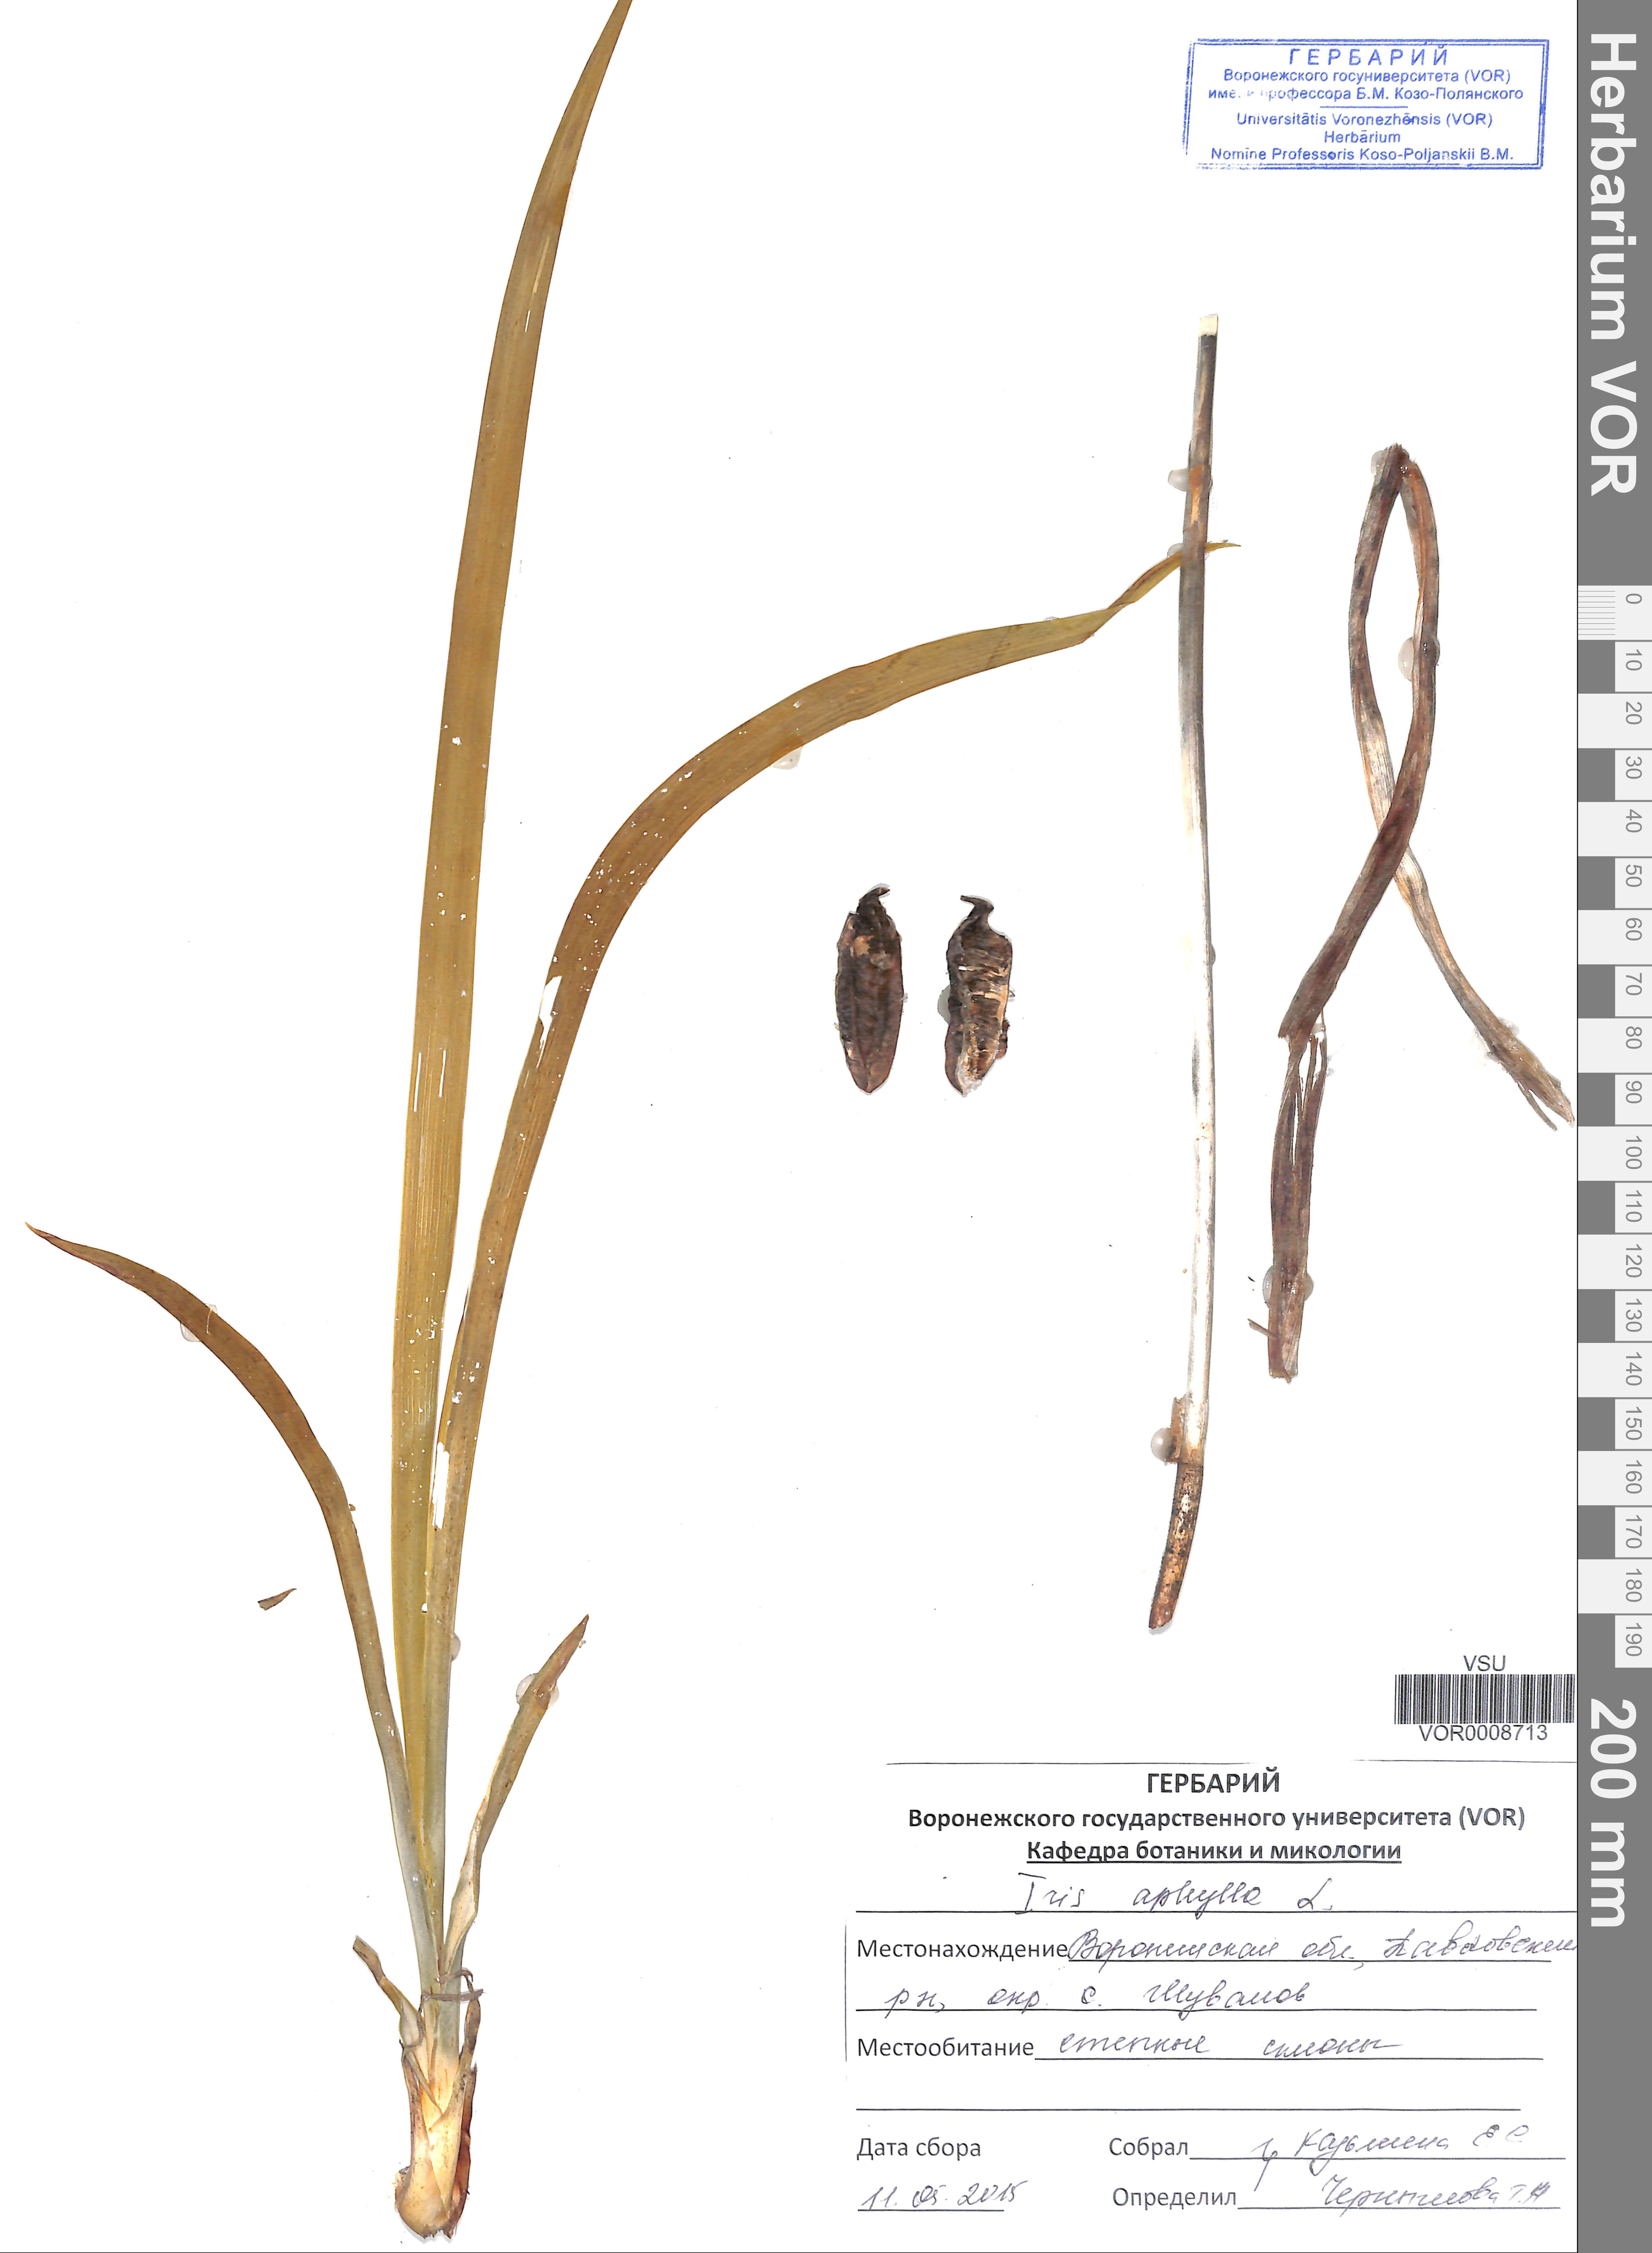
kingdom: Plantae
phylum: Tracheophyta
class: Liliopsida
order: Asparagales
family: Iridaceae
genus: Iris
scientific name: Iris aphylla
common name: Stool iris
